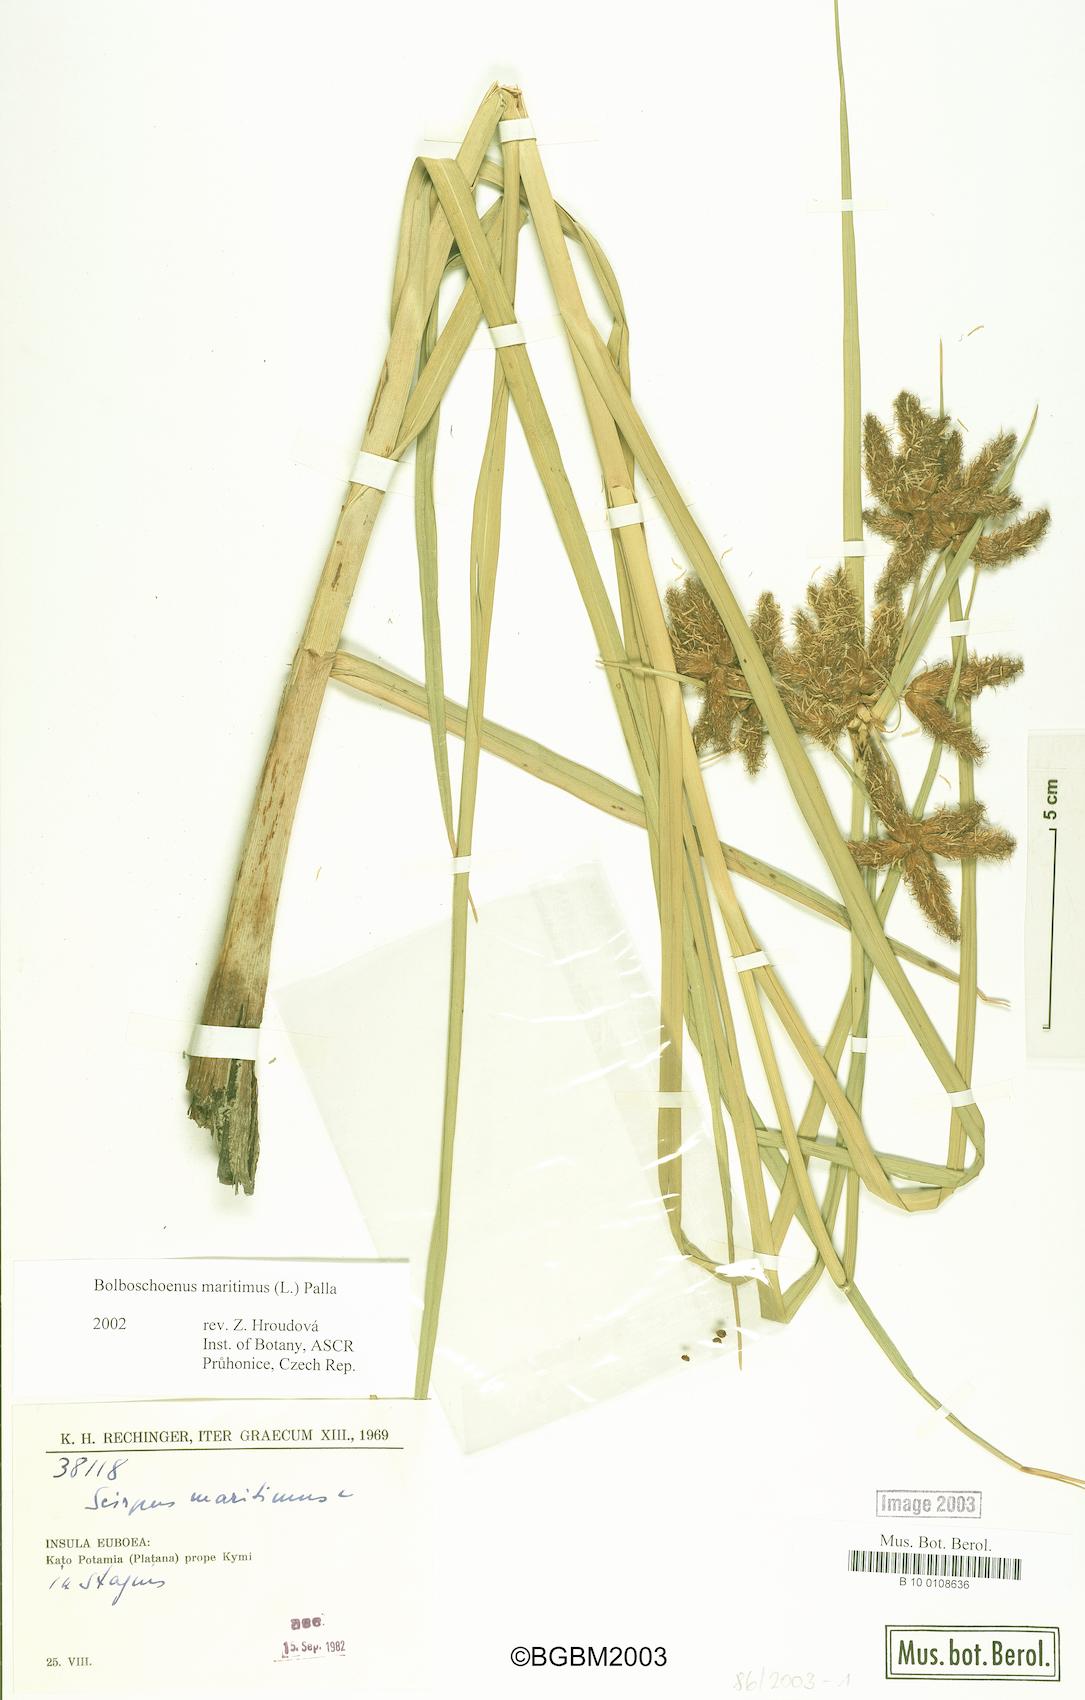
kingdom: Plantae
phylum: Tracheophyta
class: Liliopsida
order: Poales
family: Cyperaceae
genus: Bolboschoenus
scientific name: Bolboschoenus maritimus
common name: Sea club-rush
